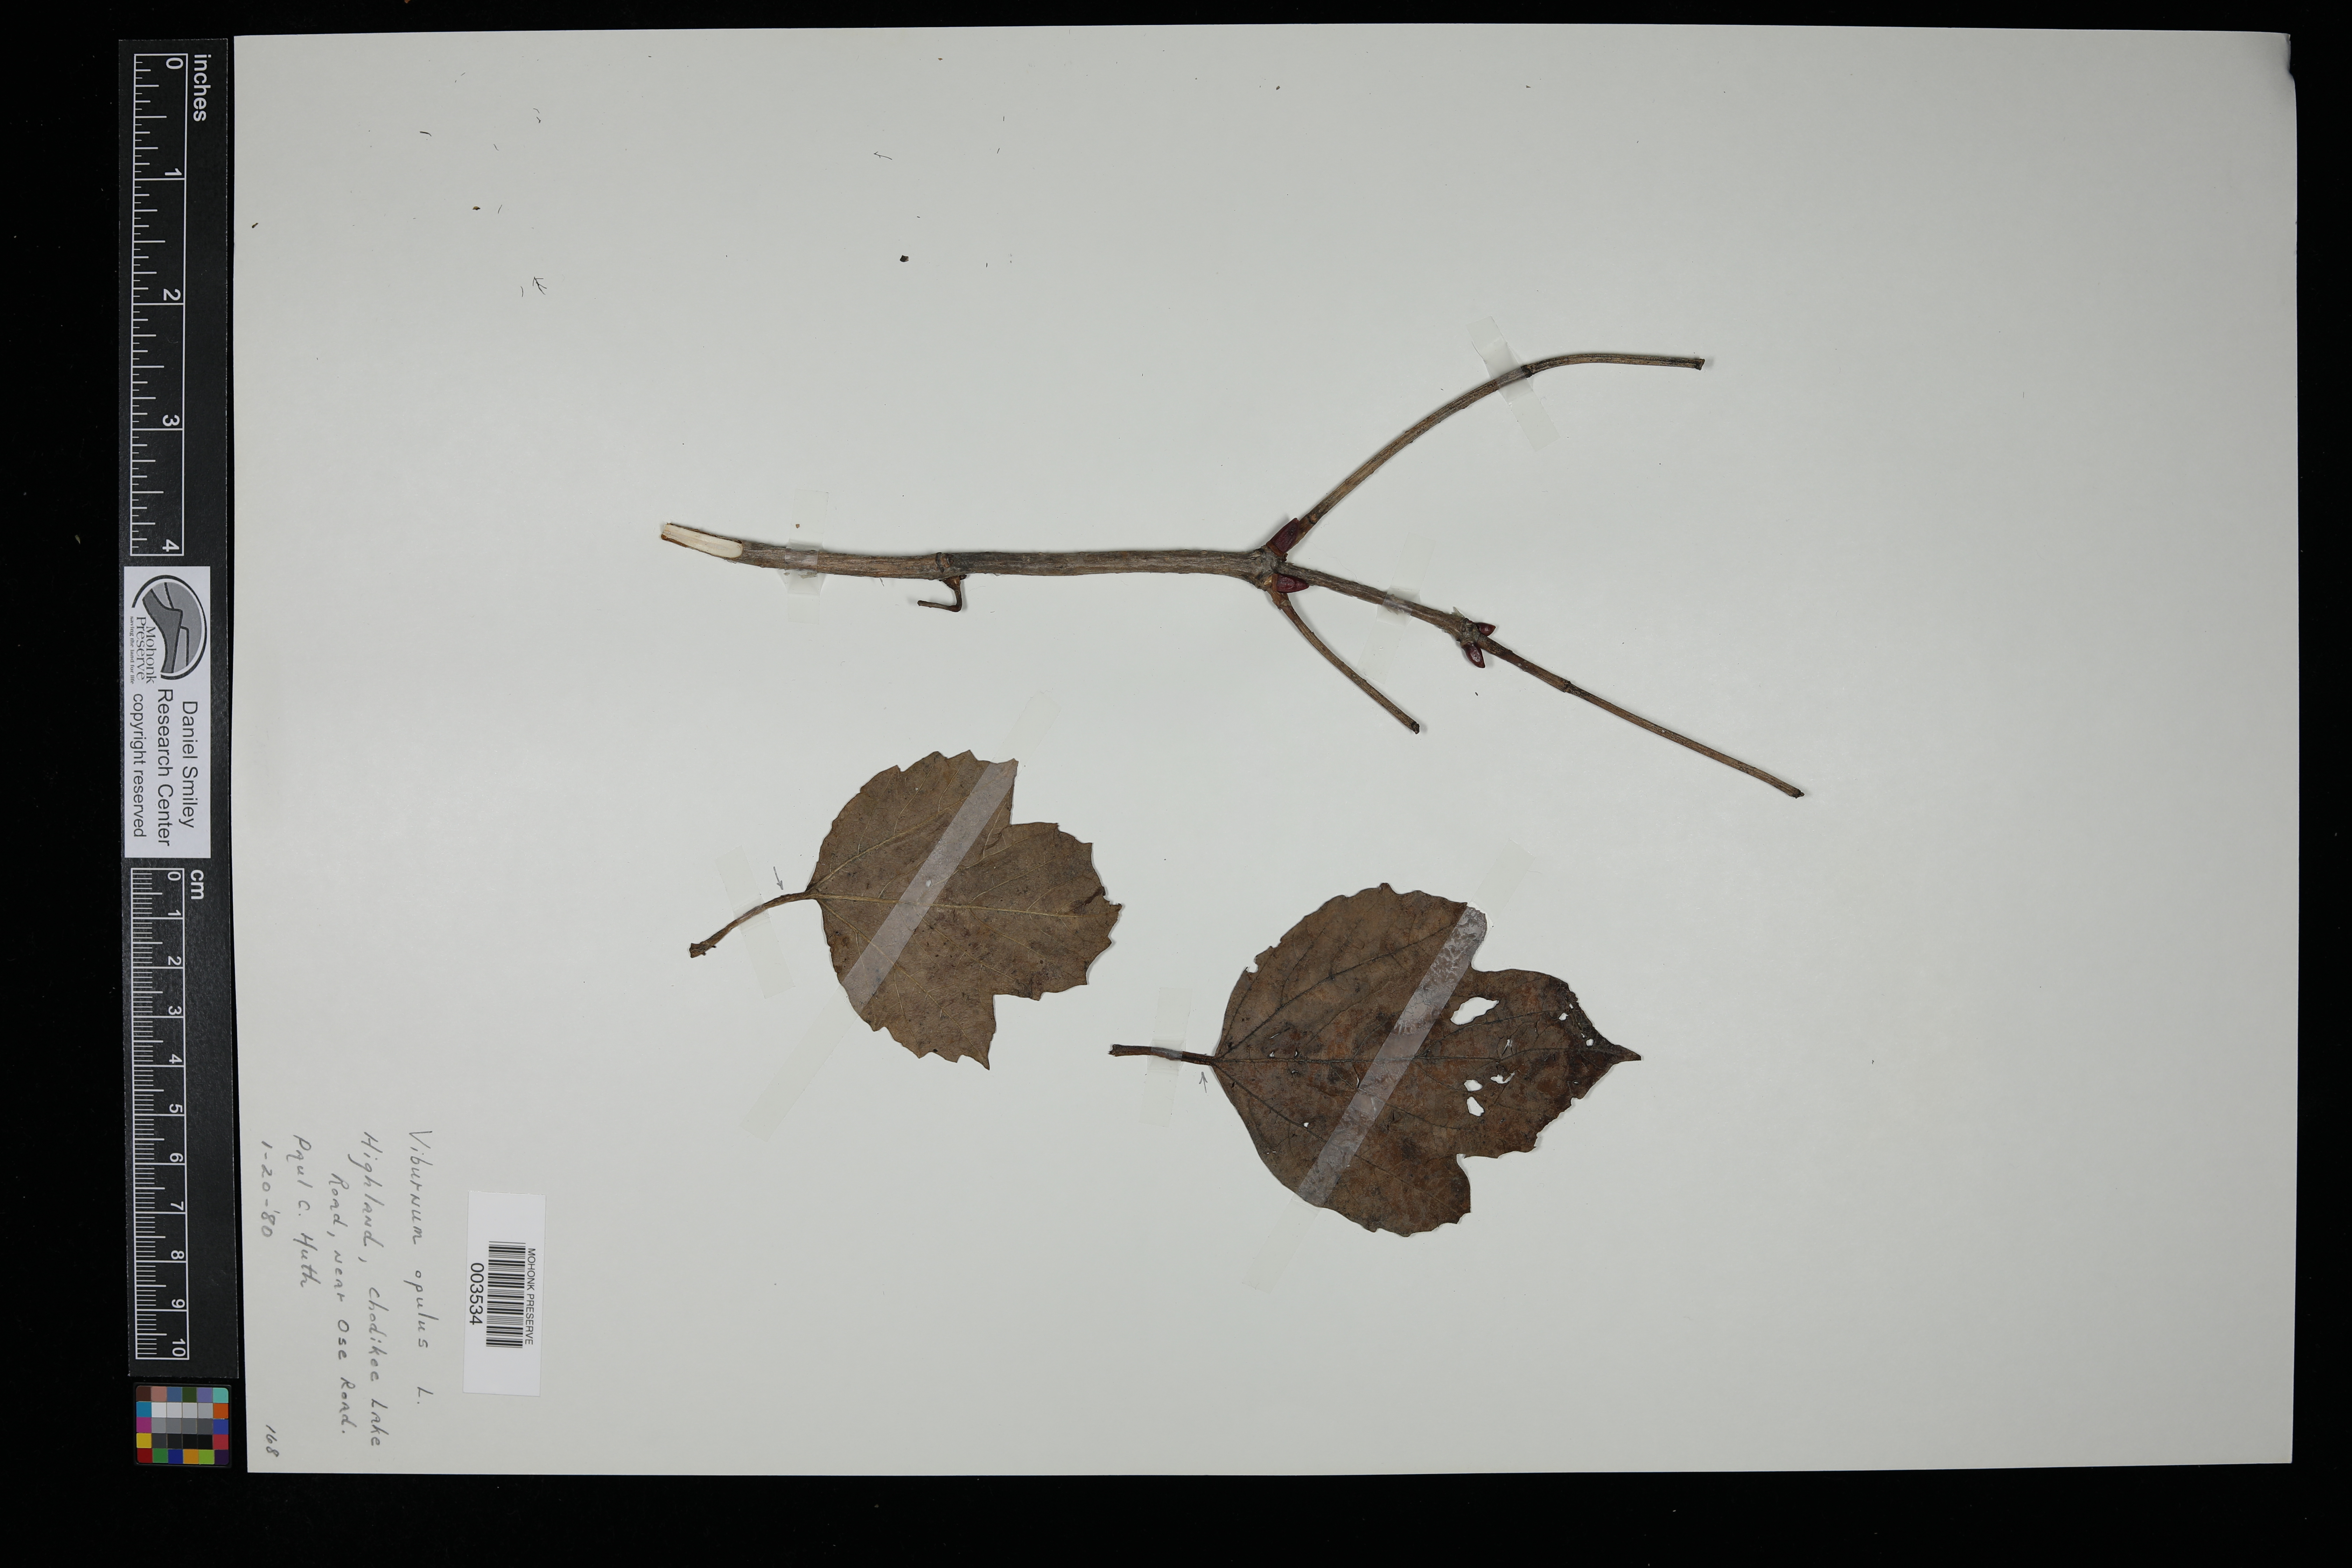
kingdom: Plantae
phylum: Tracheophyta
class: Magnoliopsida
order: Dipsacales
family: Viburnaceae
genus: Viburnum
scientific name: Viburnum opulus
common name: Guelder-rose
